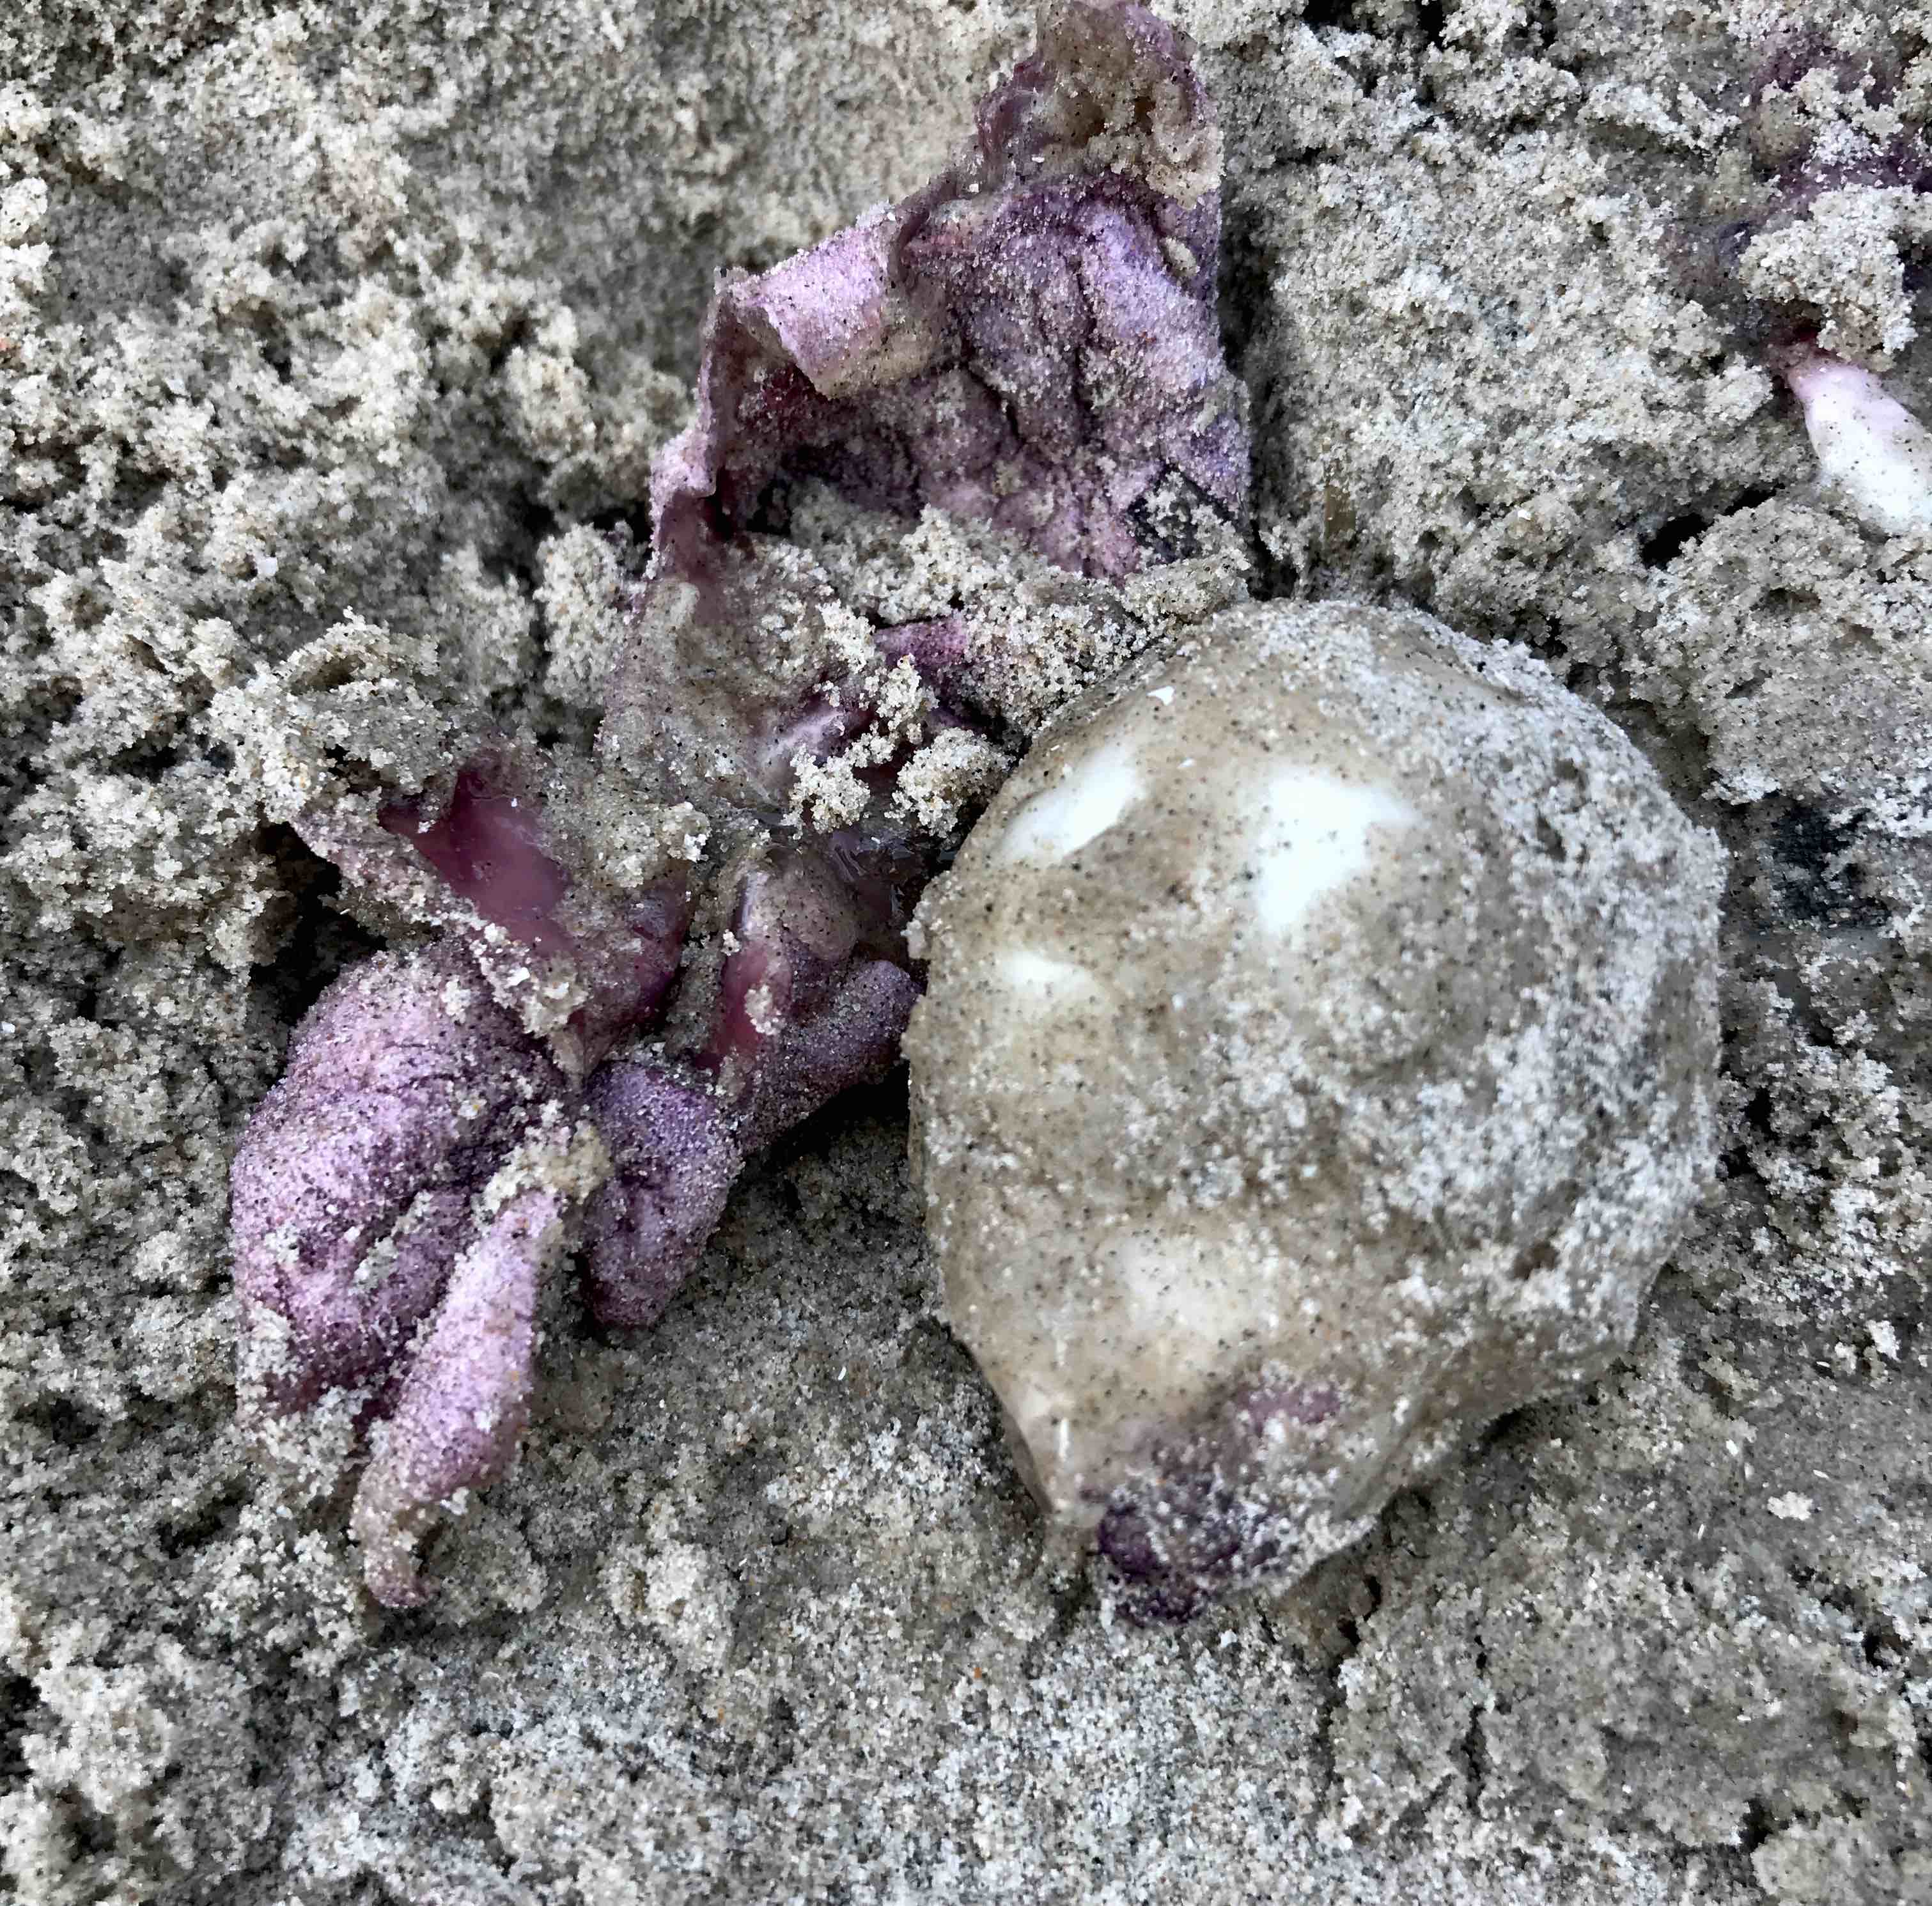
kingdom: Fungi
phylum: Basidiomycota
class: Agaricomycetes
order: Phallales
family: Phallaceae
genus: Phallus
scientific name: Phallus hadriani
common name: sand-stinksvamp
